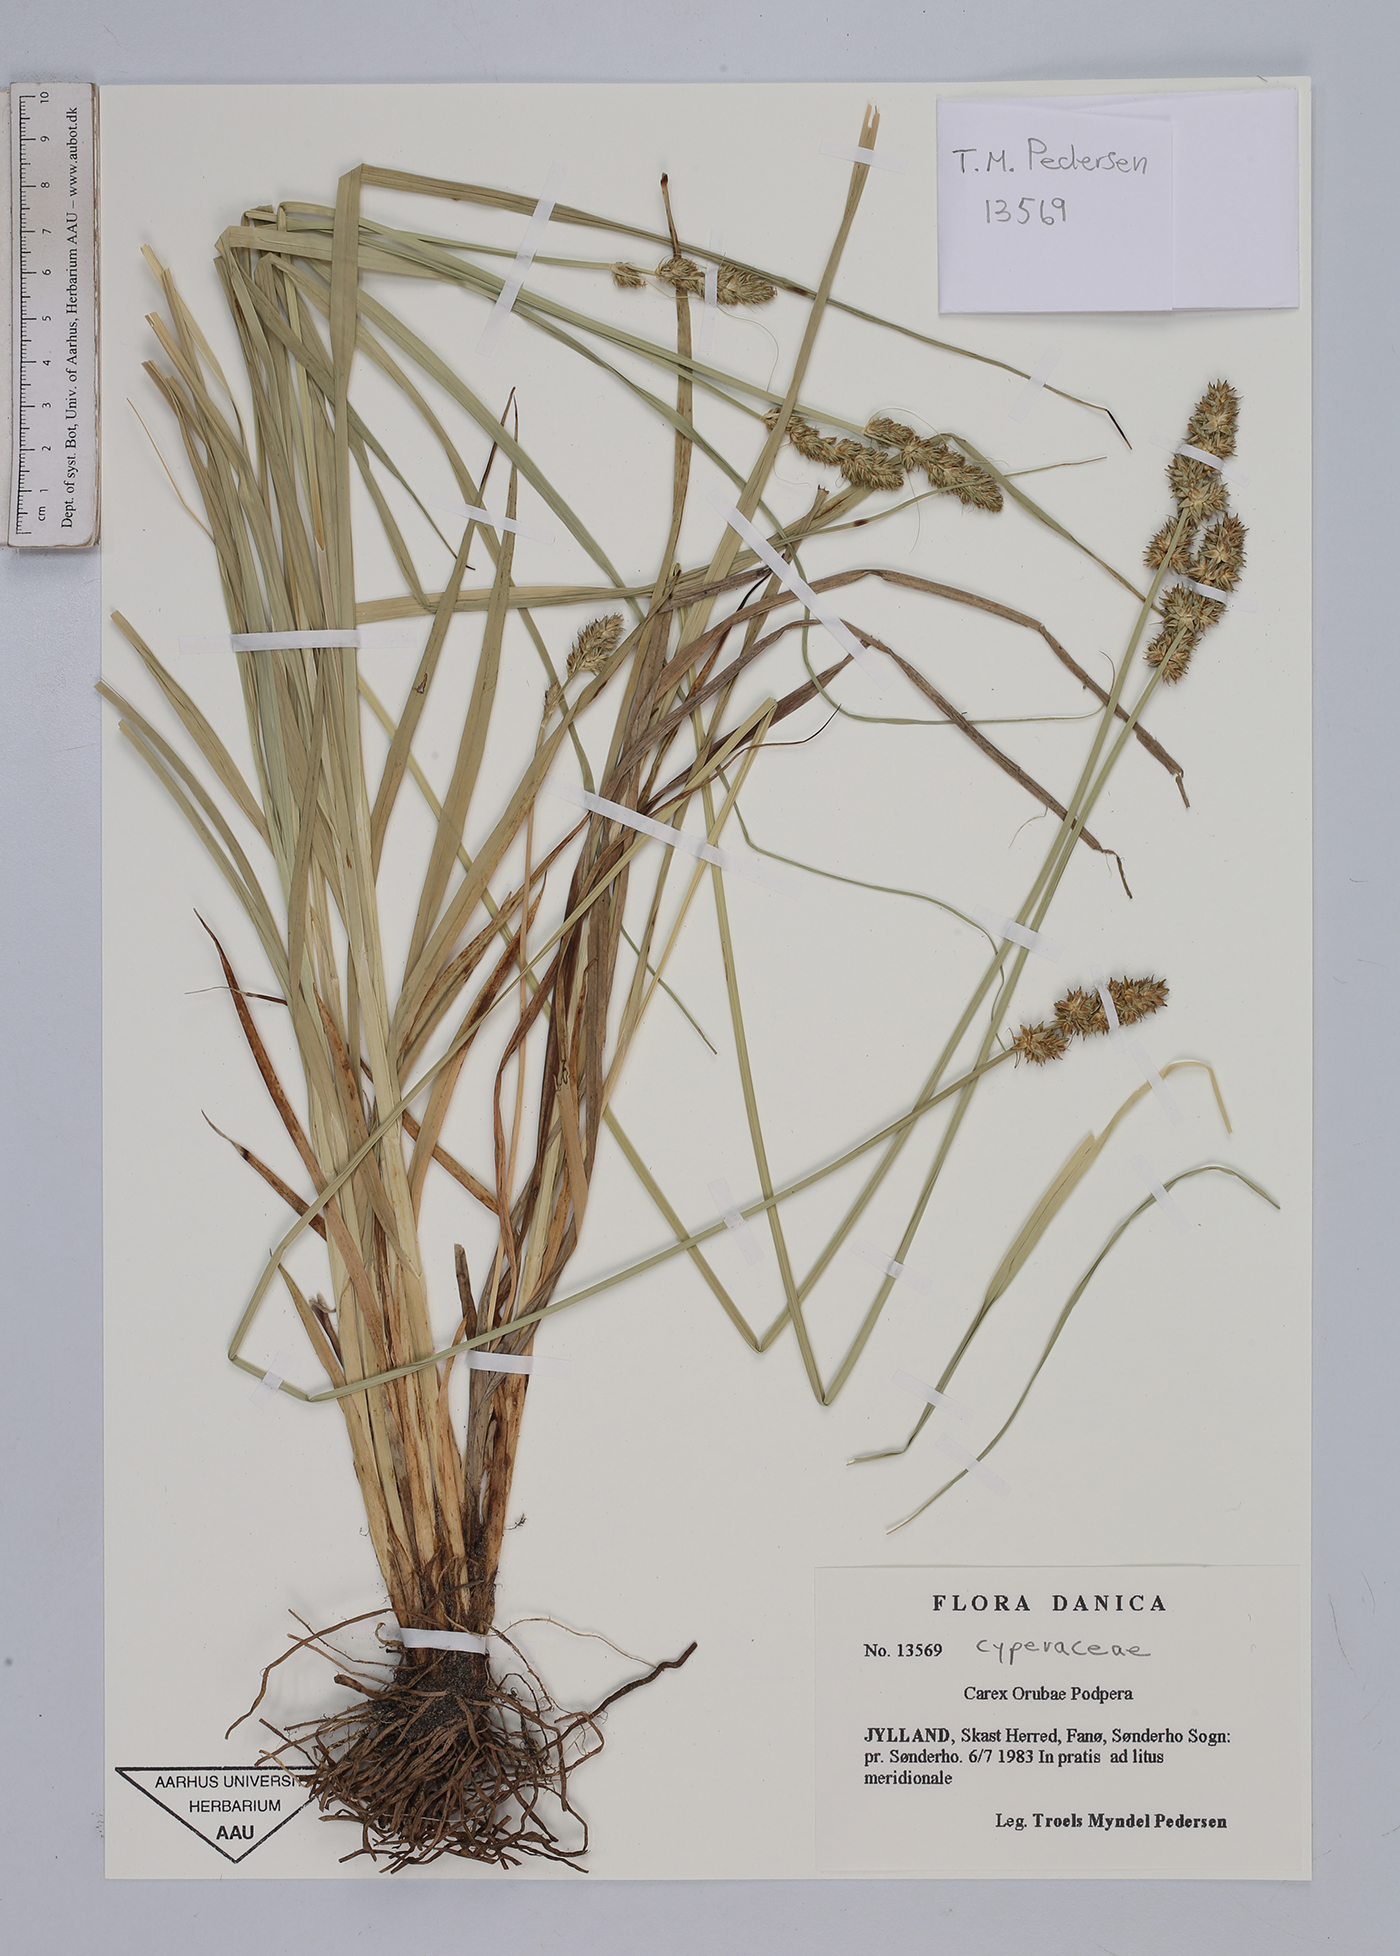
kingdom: Plantae
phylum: Tracheophyta
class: Liliopsida
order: Poales
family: Cyperaceae
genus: Carex
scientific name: Carex otrubae
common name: False fox-sedge
